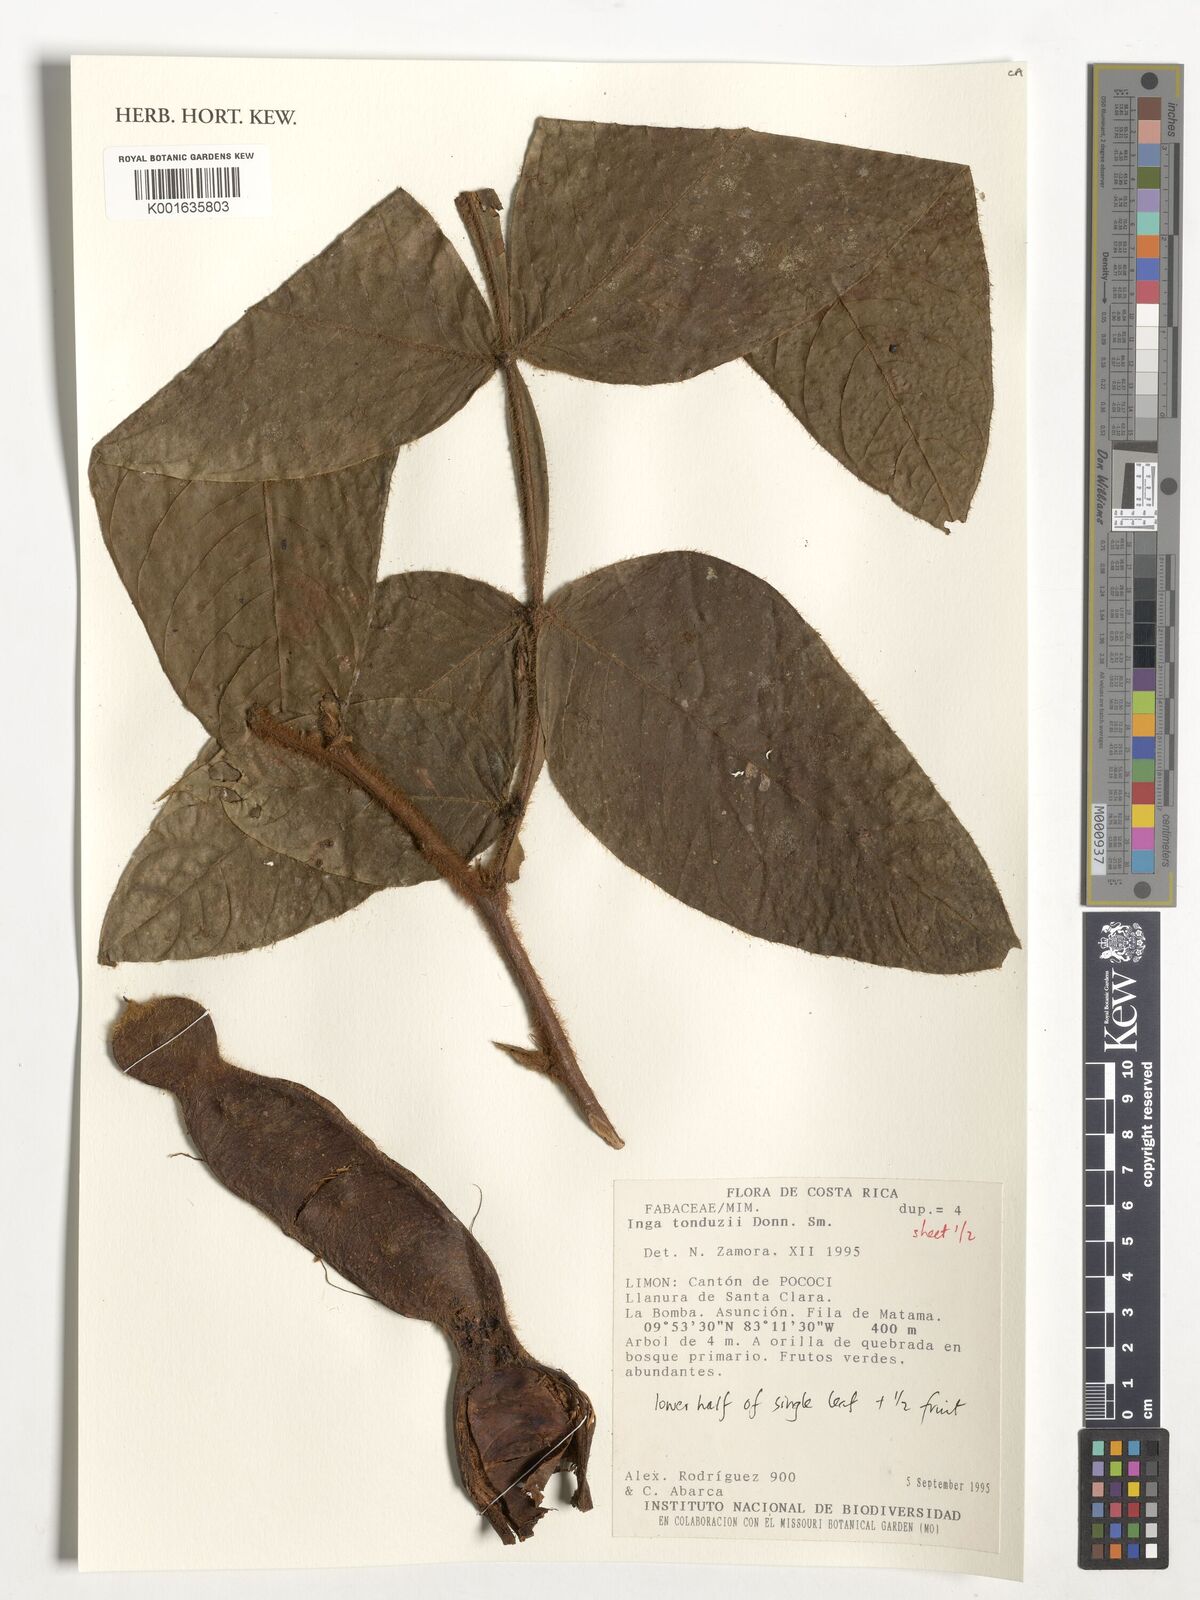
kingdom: Plantae
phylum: Tracheophyta
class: Magnoliopsida
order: Fabales
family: Fabaceae
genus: Inga
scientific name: Inga tonduzii
